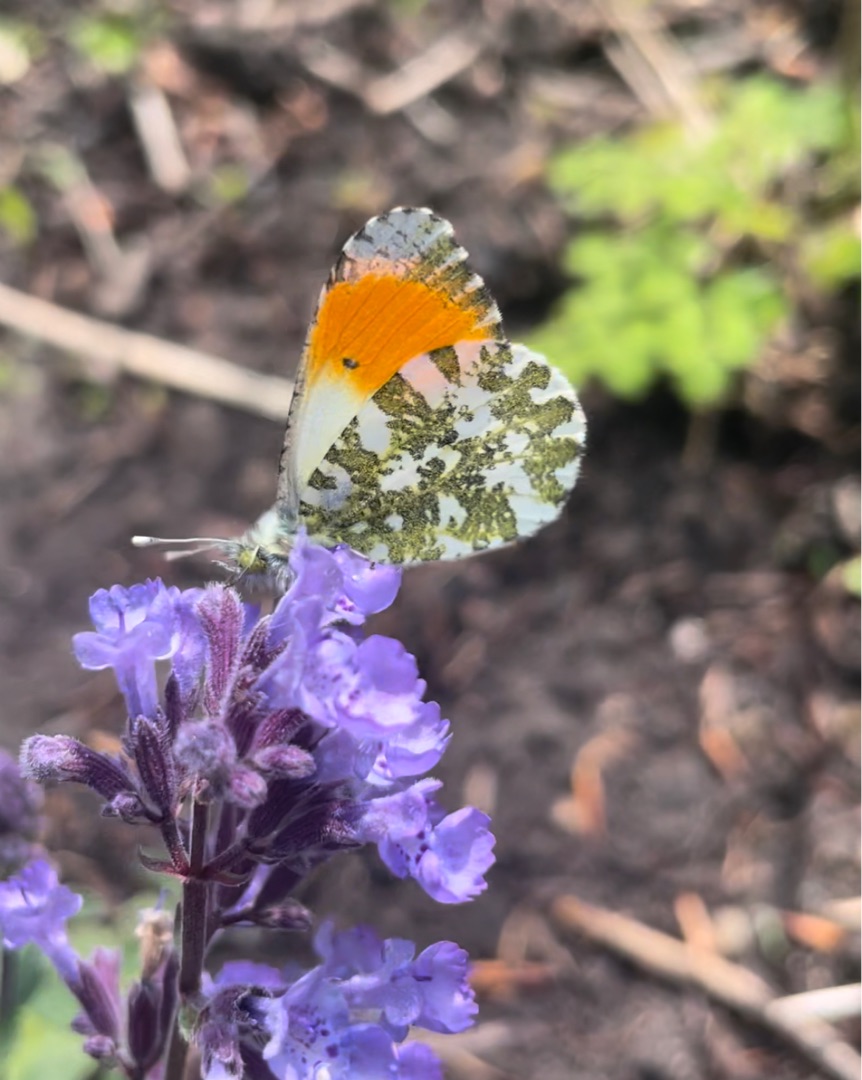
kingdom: Animalia
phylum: Arthropoda
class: Insecta
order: Lepidoptera
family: Pieridae
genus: Anthocharis
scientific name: Anthocharis cardamines
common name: Aurora
